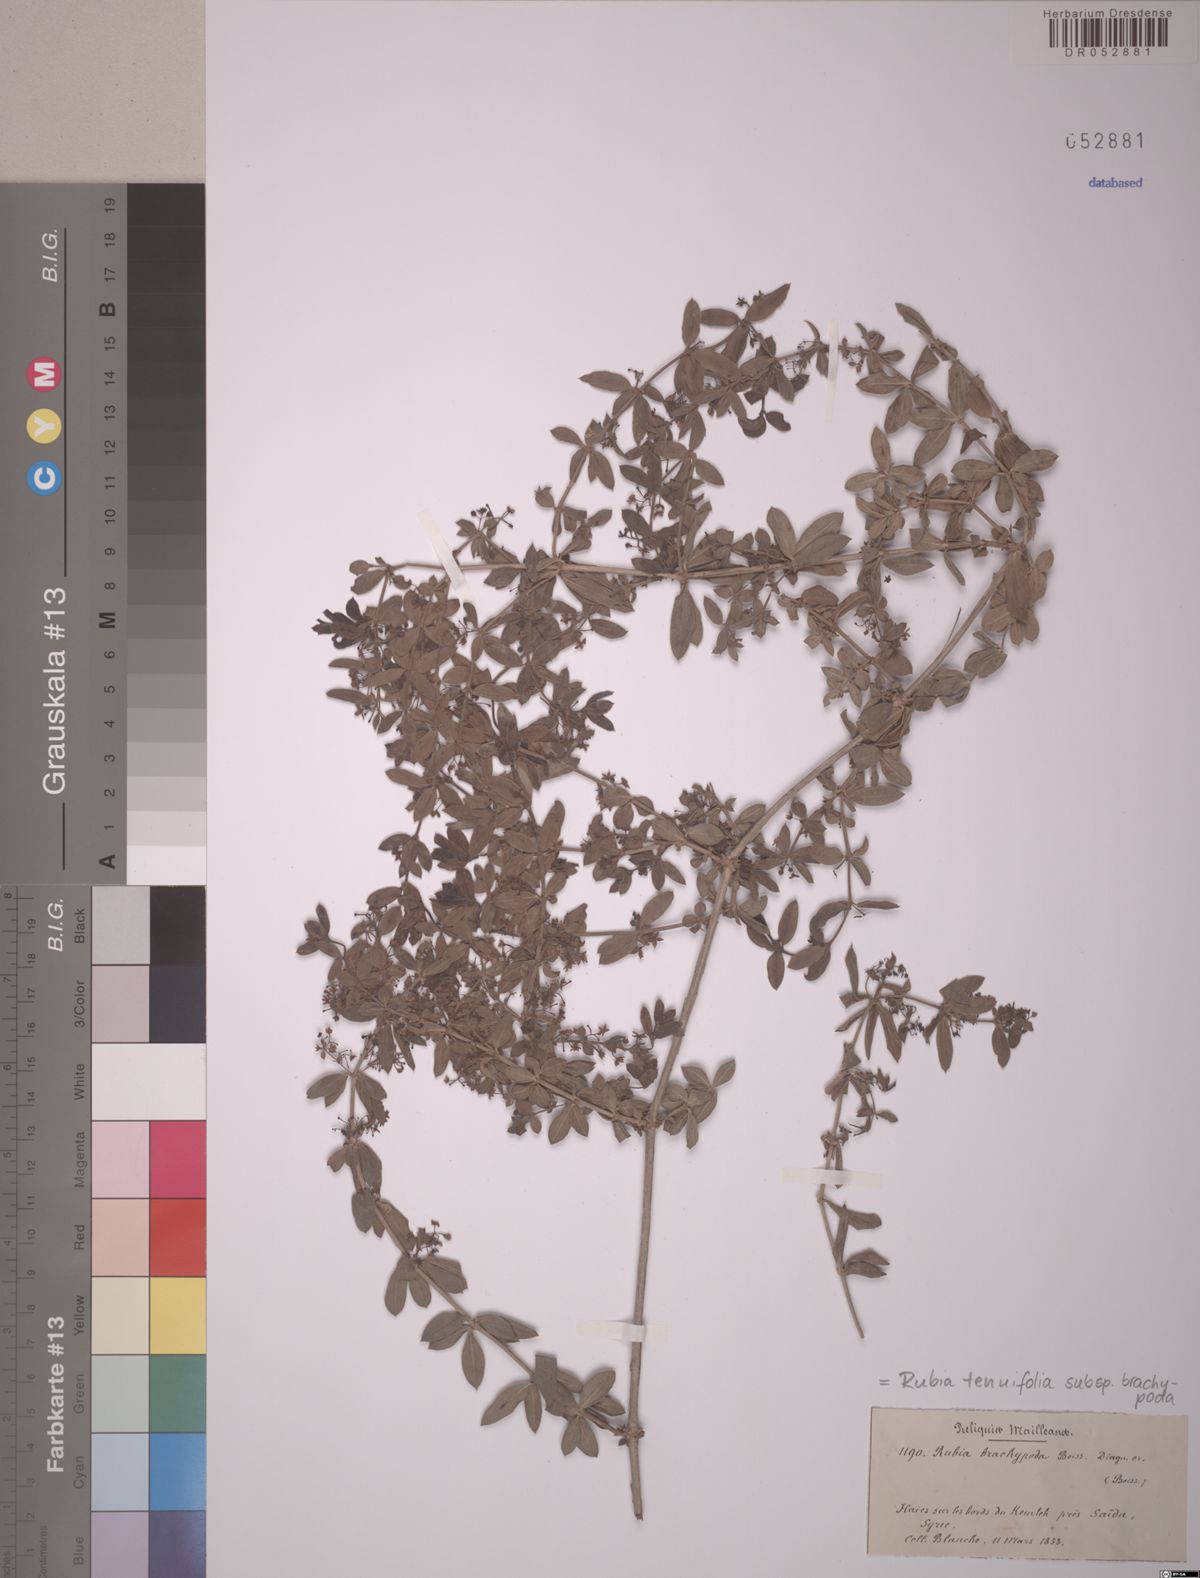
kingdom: Plantae
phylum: Tracheophyta
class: Magnoliopsida
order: Gentianales
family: Rubiaceae
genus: Rubia
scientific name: Rubia tenuifolia
